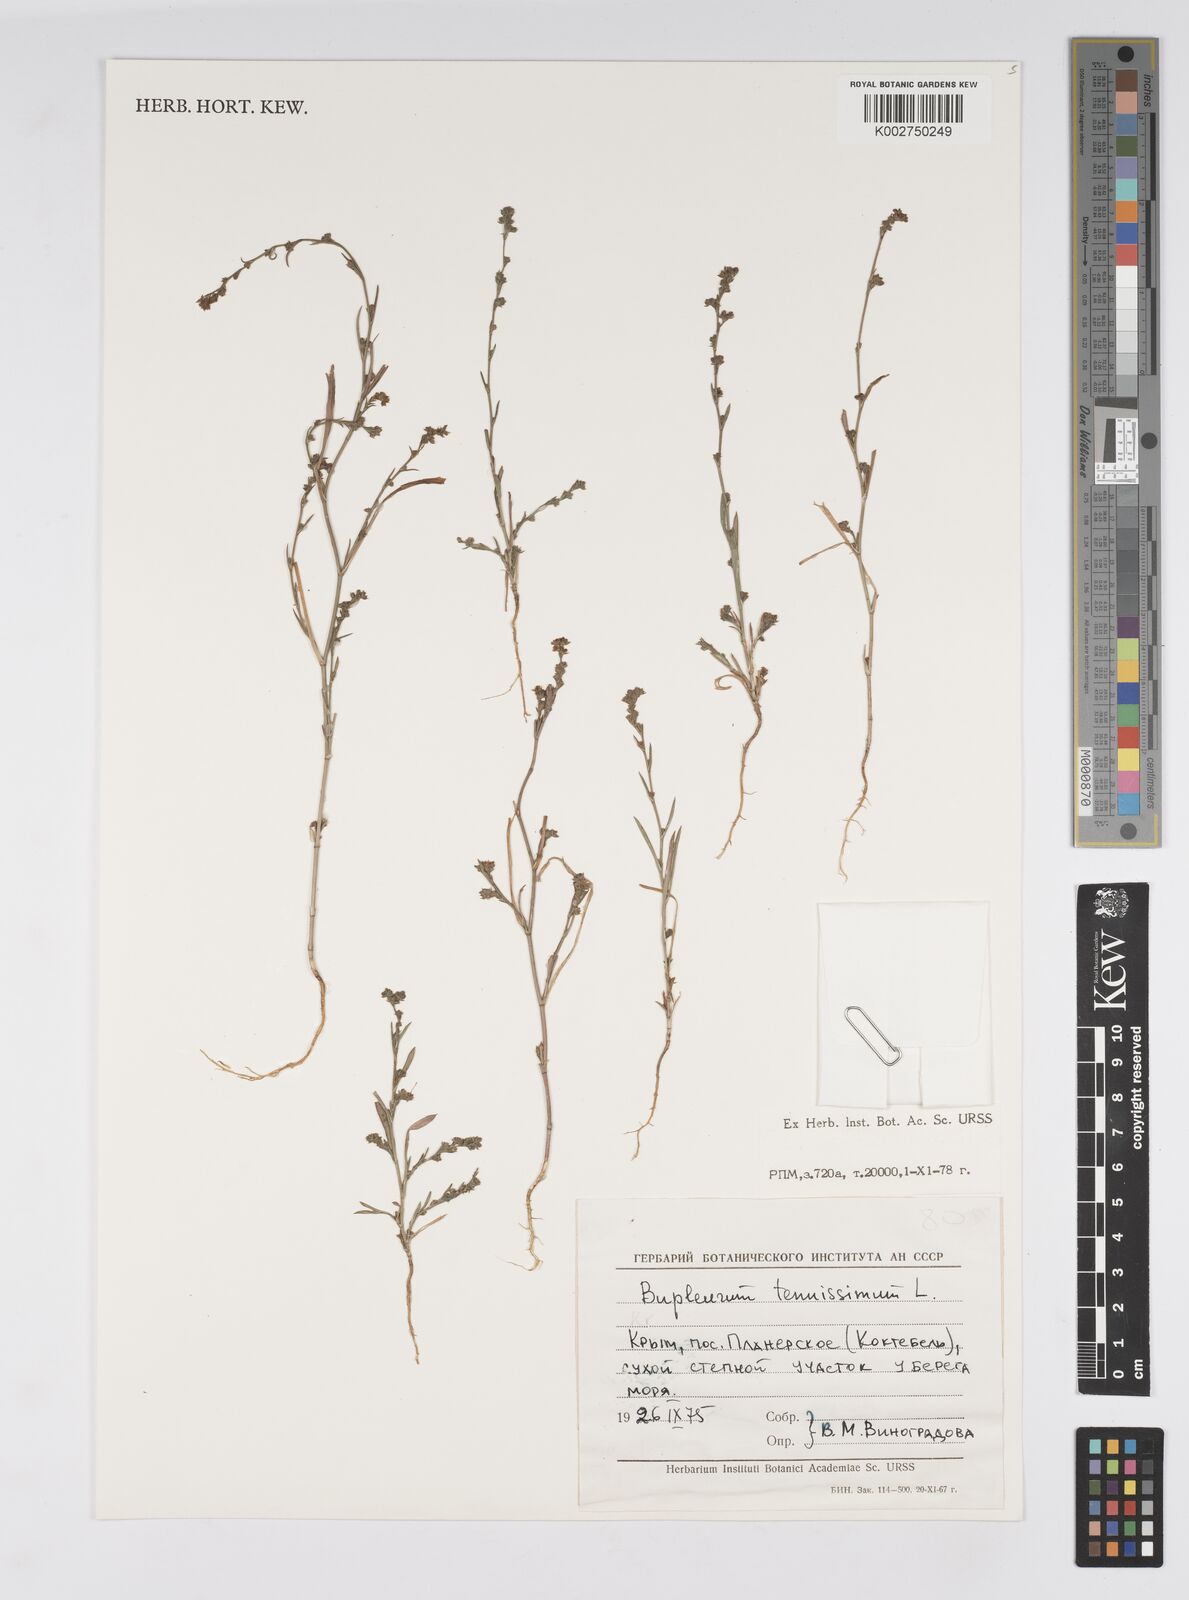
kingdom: Plantae
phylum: Tracheophyta
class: Magnoliopsida
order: Apiales
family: Apiaceae
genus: Bupleurum
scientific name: Bupleurum tenuissimum
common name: Slender hare's-ear
